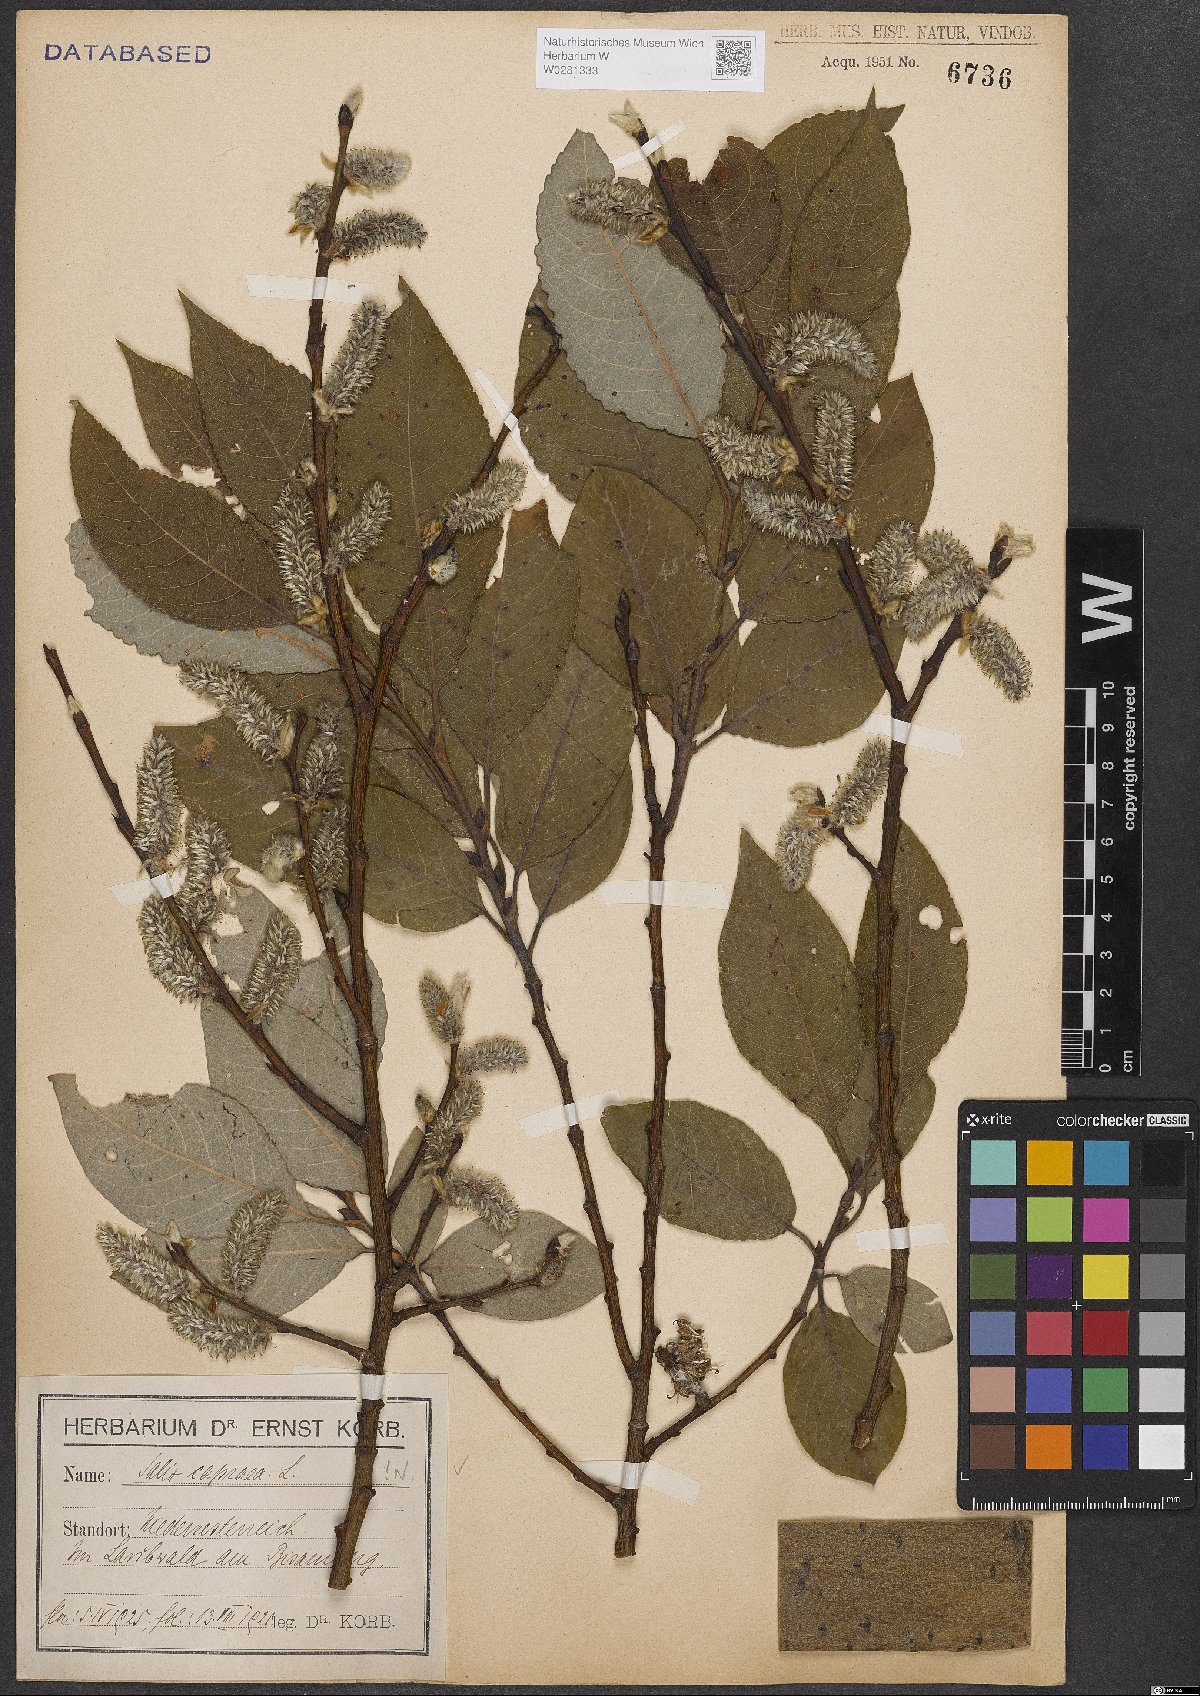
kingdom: Plantae
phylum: Tracheophyta
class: Magnoliopsida
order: Malpighiales
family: Salicaceae
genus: Salix
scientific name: Salix caprea
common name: Goat willow
